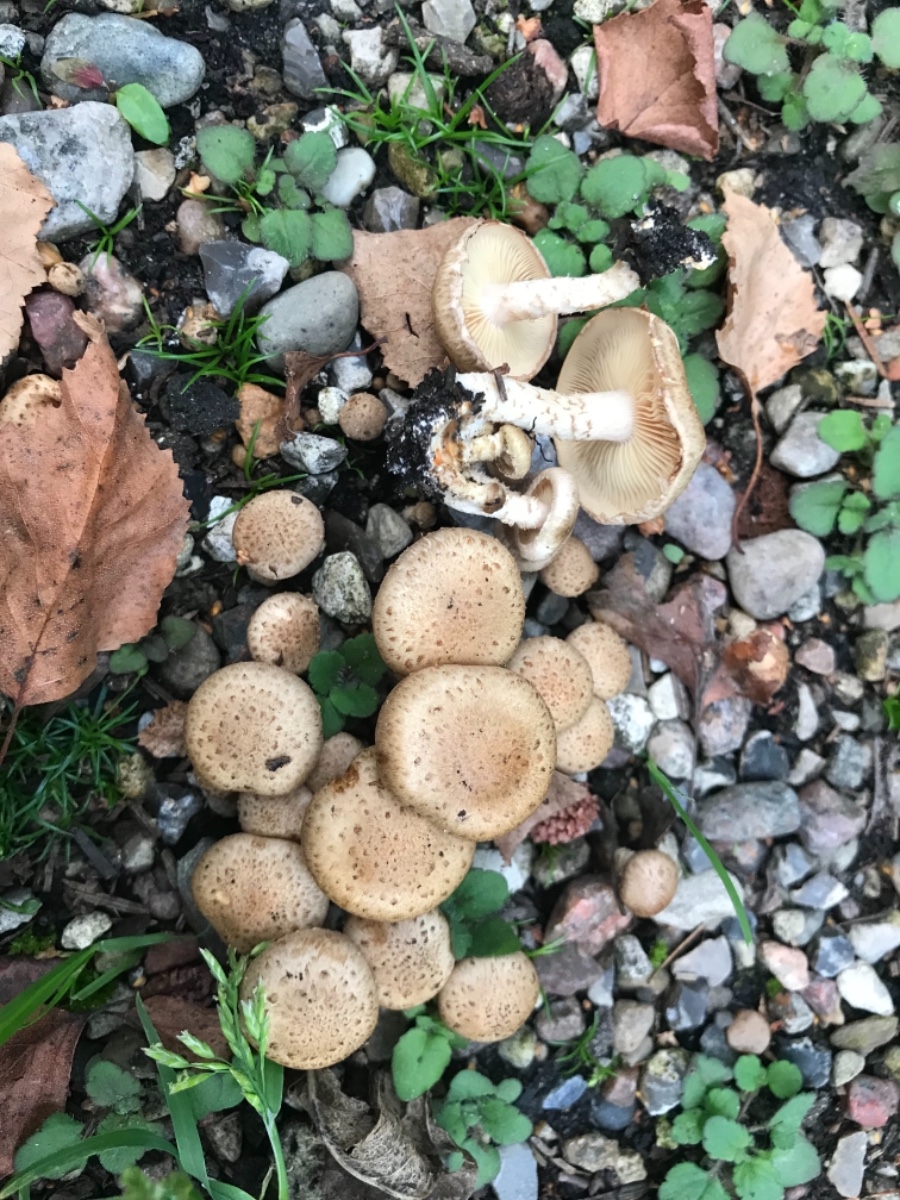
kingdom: Fungi
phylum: Basidiomycota
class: Agaricomycetes
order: Agaricales
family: Strophariaceae
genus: Pholiota
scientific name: Pholiota gummosa
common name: grøngul skælhat
